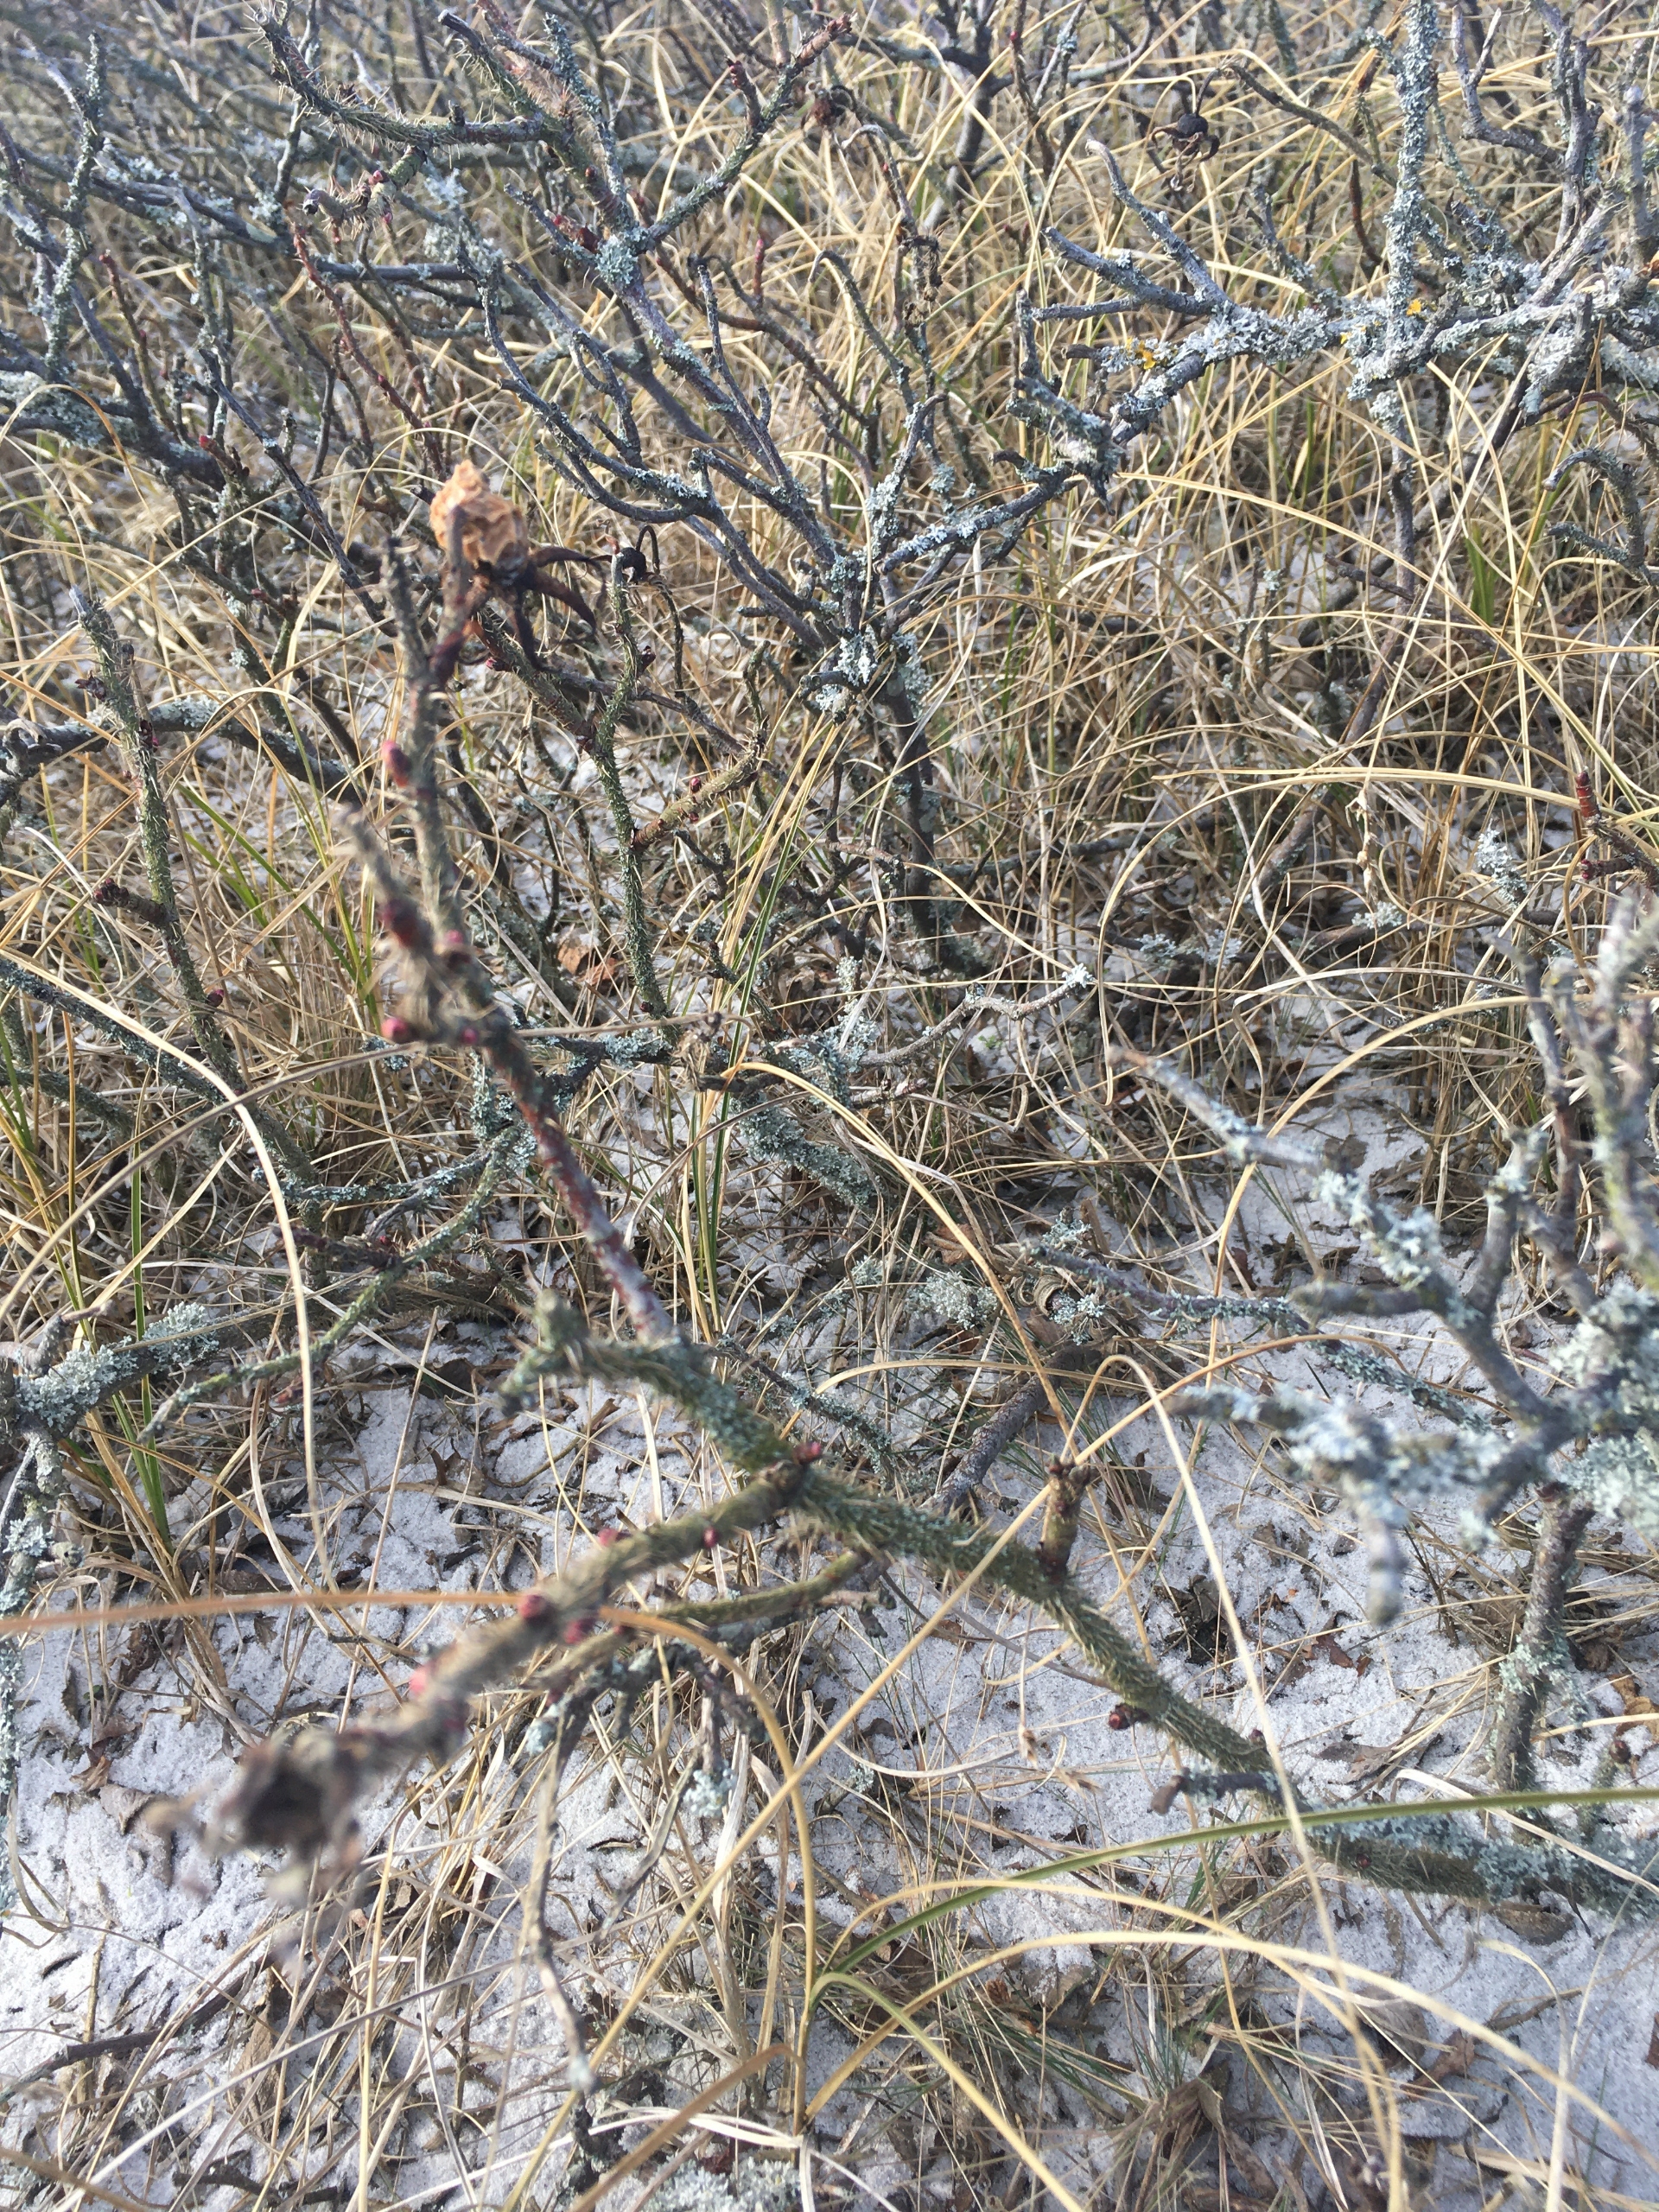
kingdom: Plantae
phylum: Tracheophyta
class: Magnoliopsida
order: Rosales
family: Rosaceae
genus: Rosa
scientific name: Rosa rugosa
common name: Rynket rose
